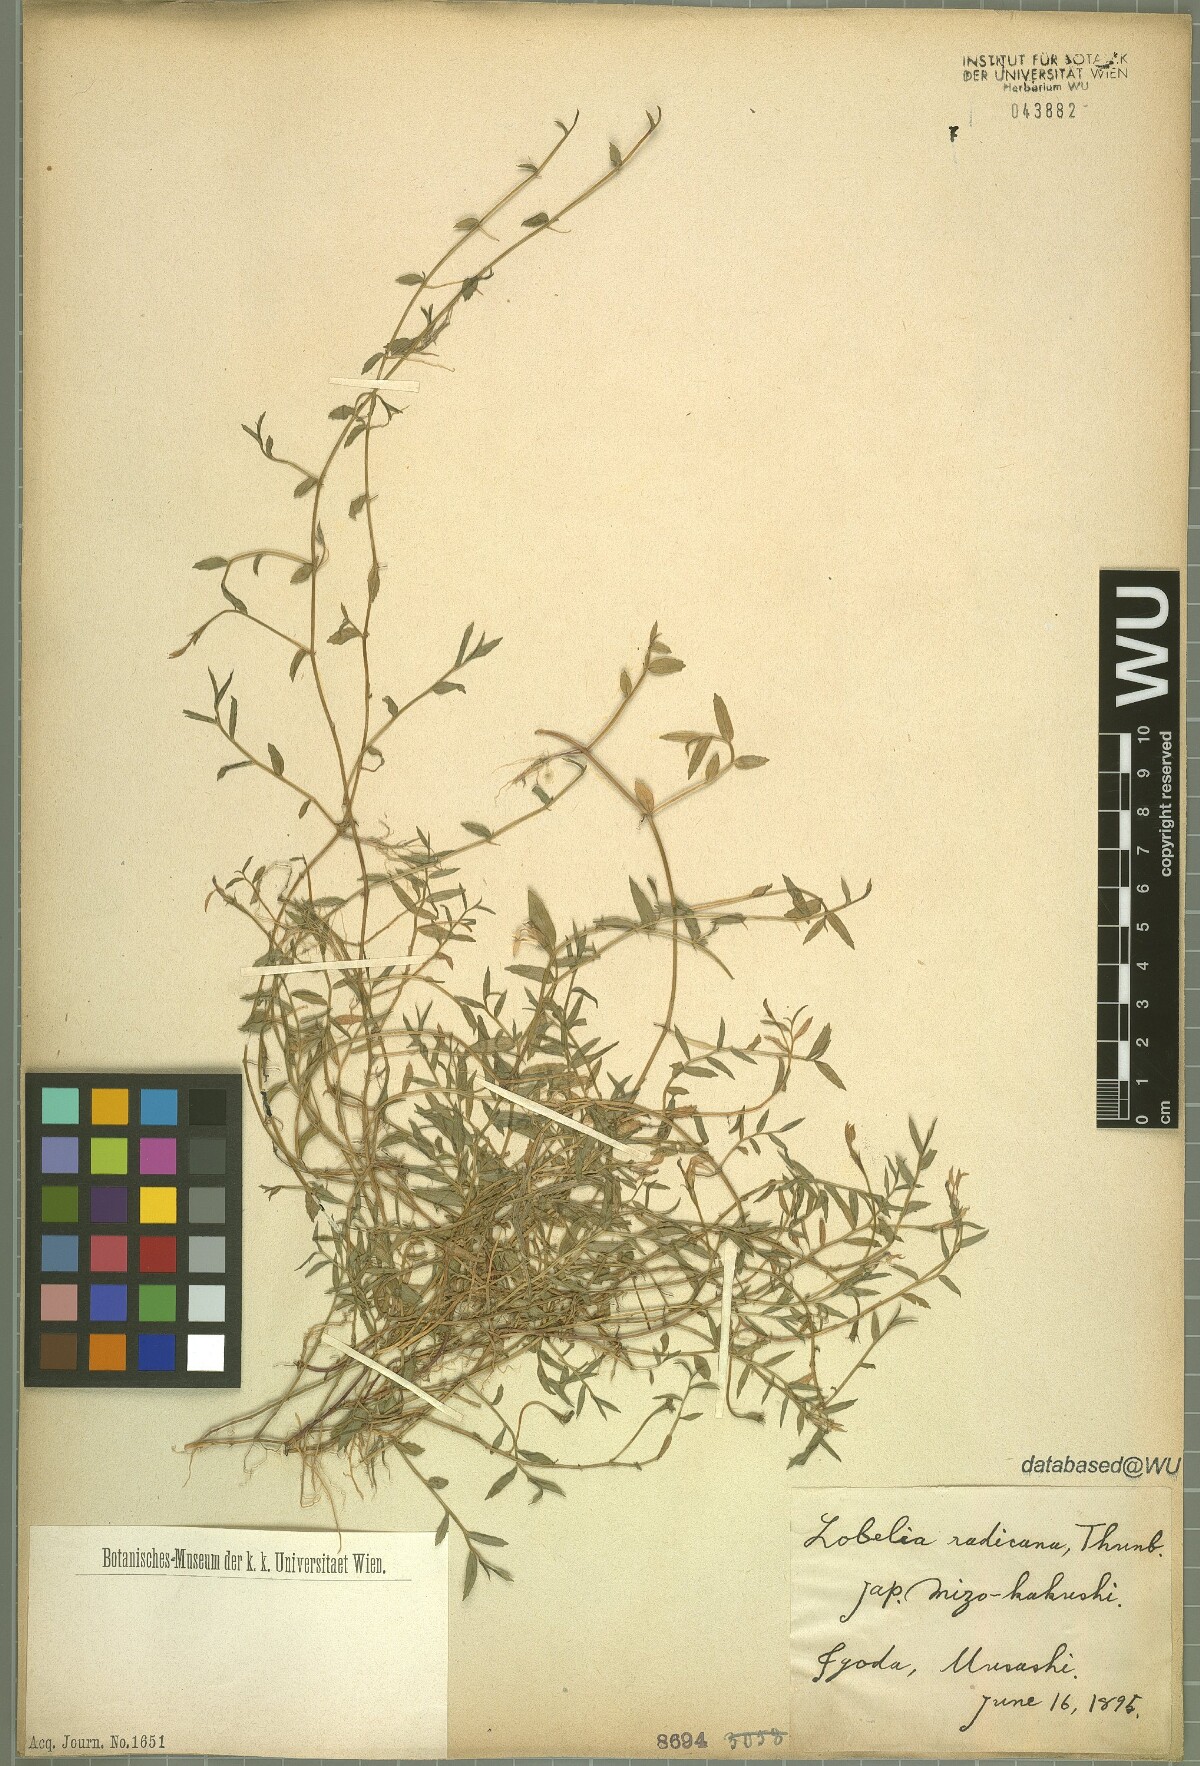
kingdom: Plantae
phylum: Tracheophyta
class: Magnoliopsida
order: Asterales
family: Campanulaceae
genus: Lobelia
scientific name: Lobelia chinensis
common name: Chinese lobelia
